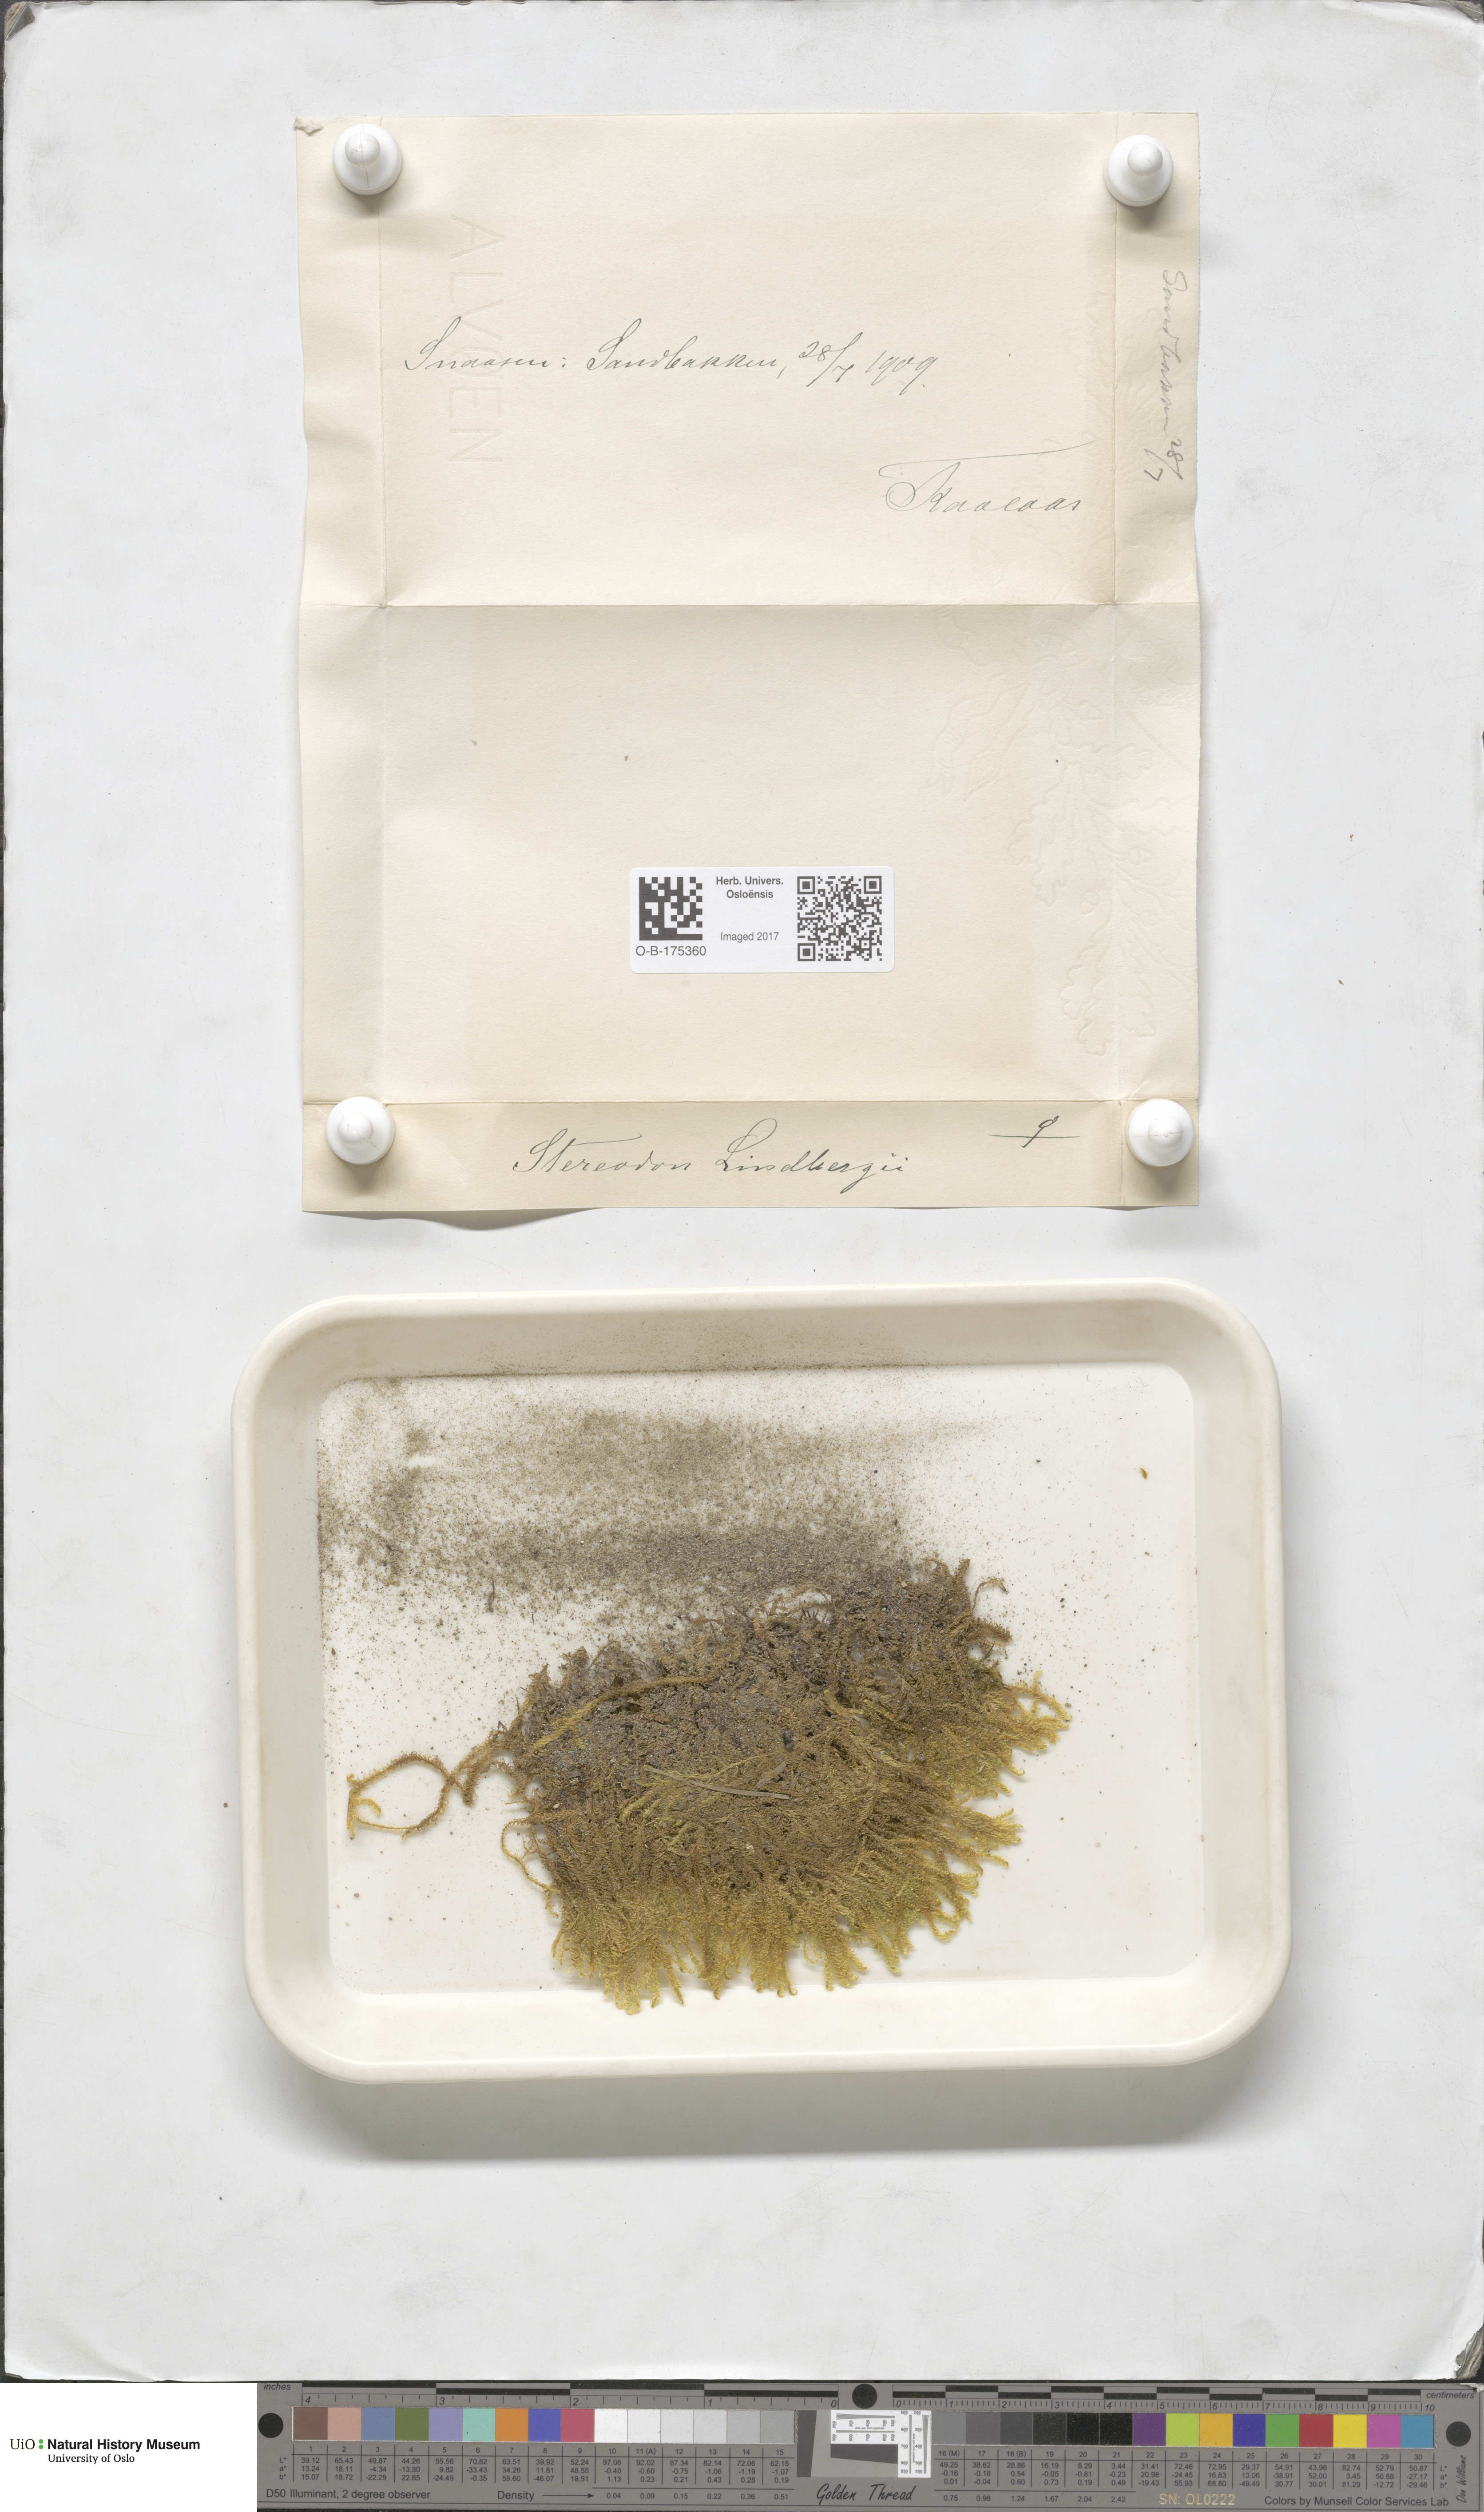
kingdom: Plantae
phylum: Bryophyta
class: Bryopsida
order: Hypnales
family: Pylaisiaceae
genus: Calliergonella
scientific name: Calliergonella lindbergii
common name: Lindberg's plait-moss
